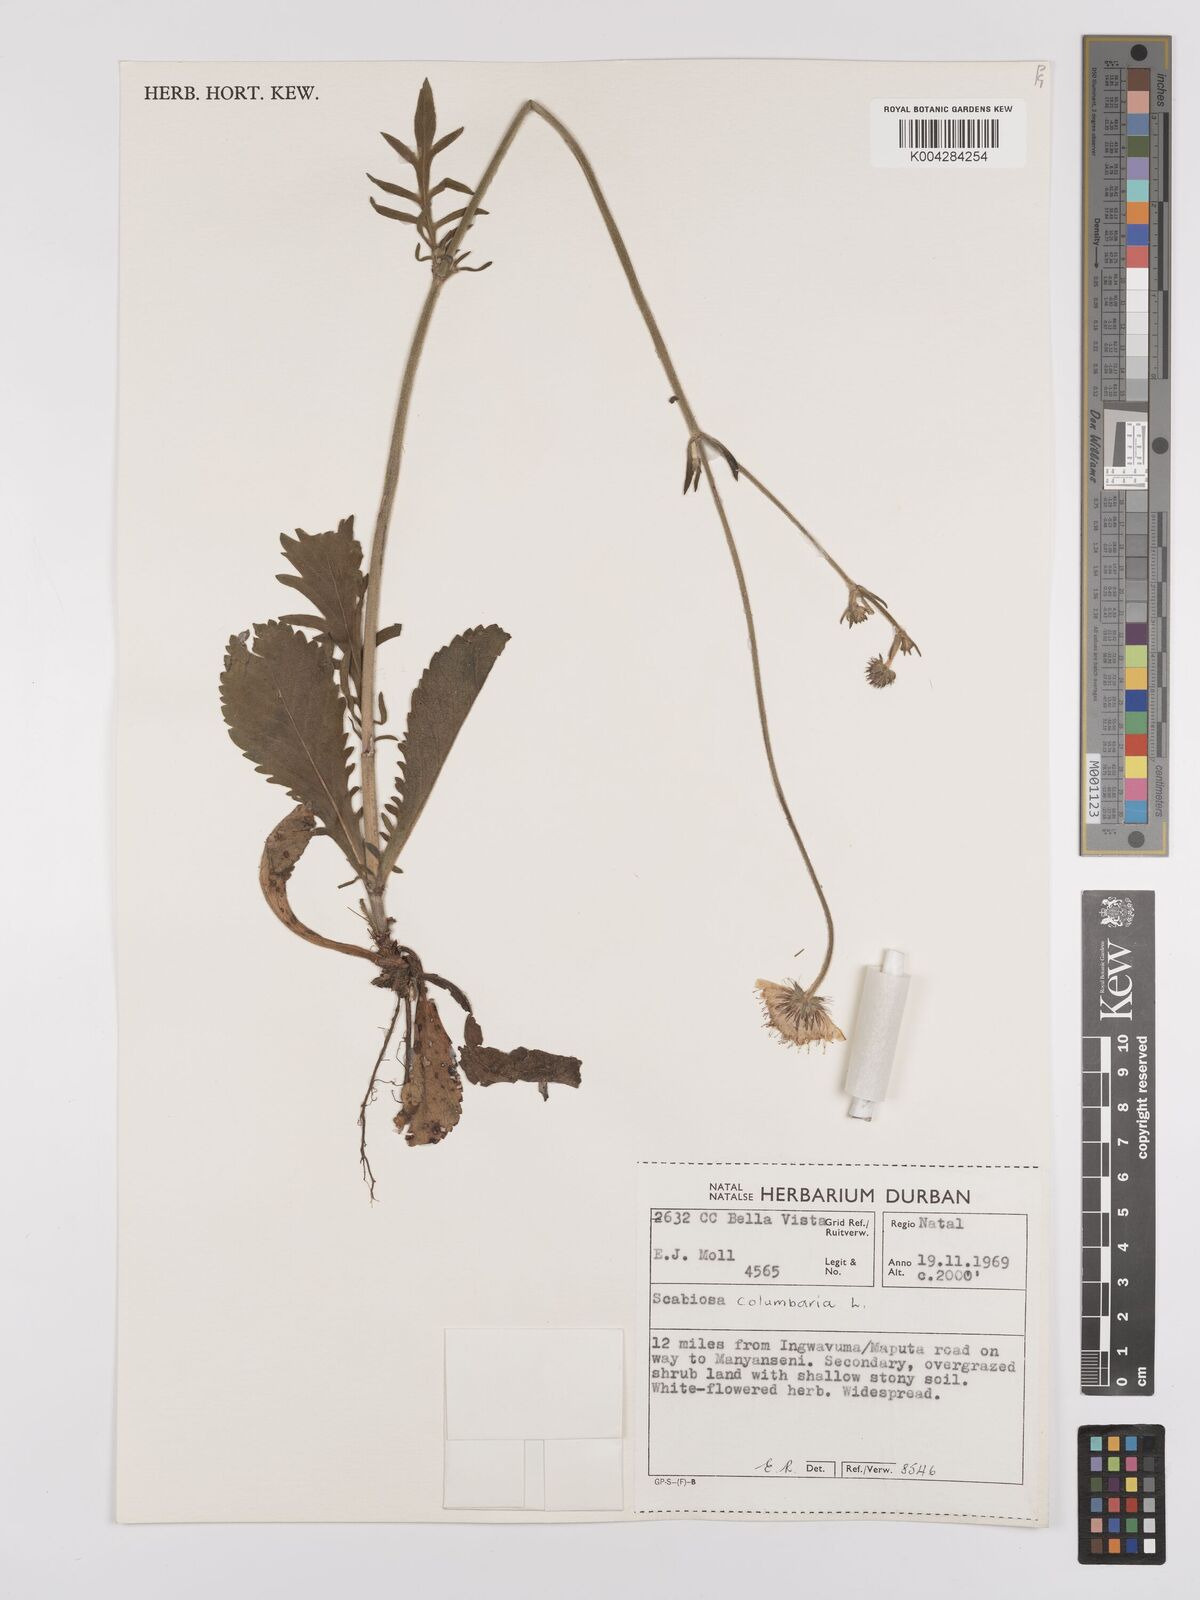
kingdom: Plantae
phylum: Tracheophyta
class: Magnoliopsida
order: Dipsacales
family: Caprifoliaceae
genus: Scabiosa
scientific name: Scabiosa columbaria
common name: Small scabious
